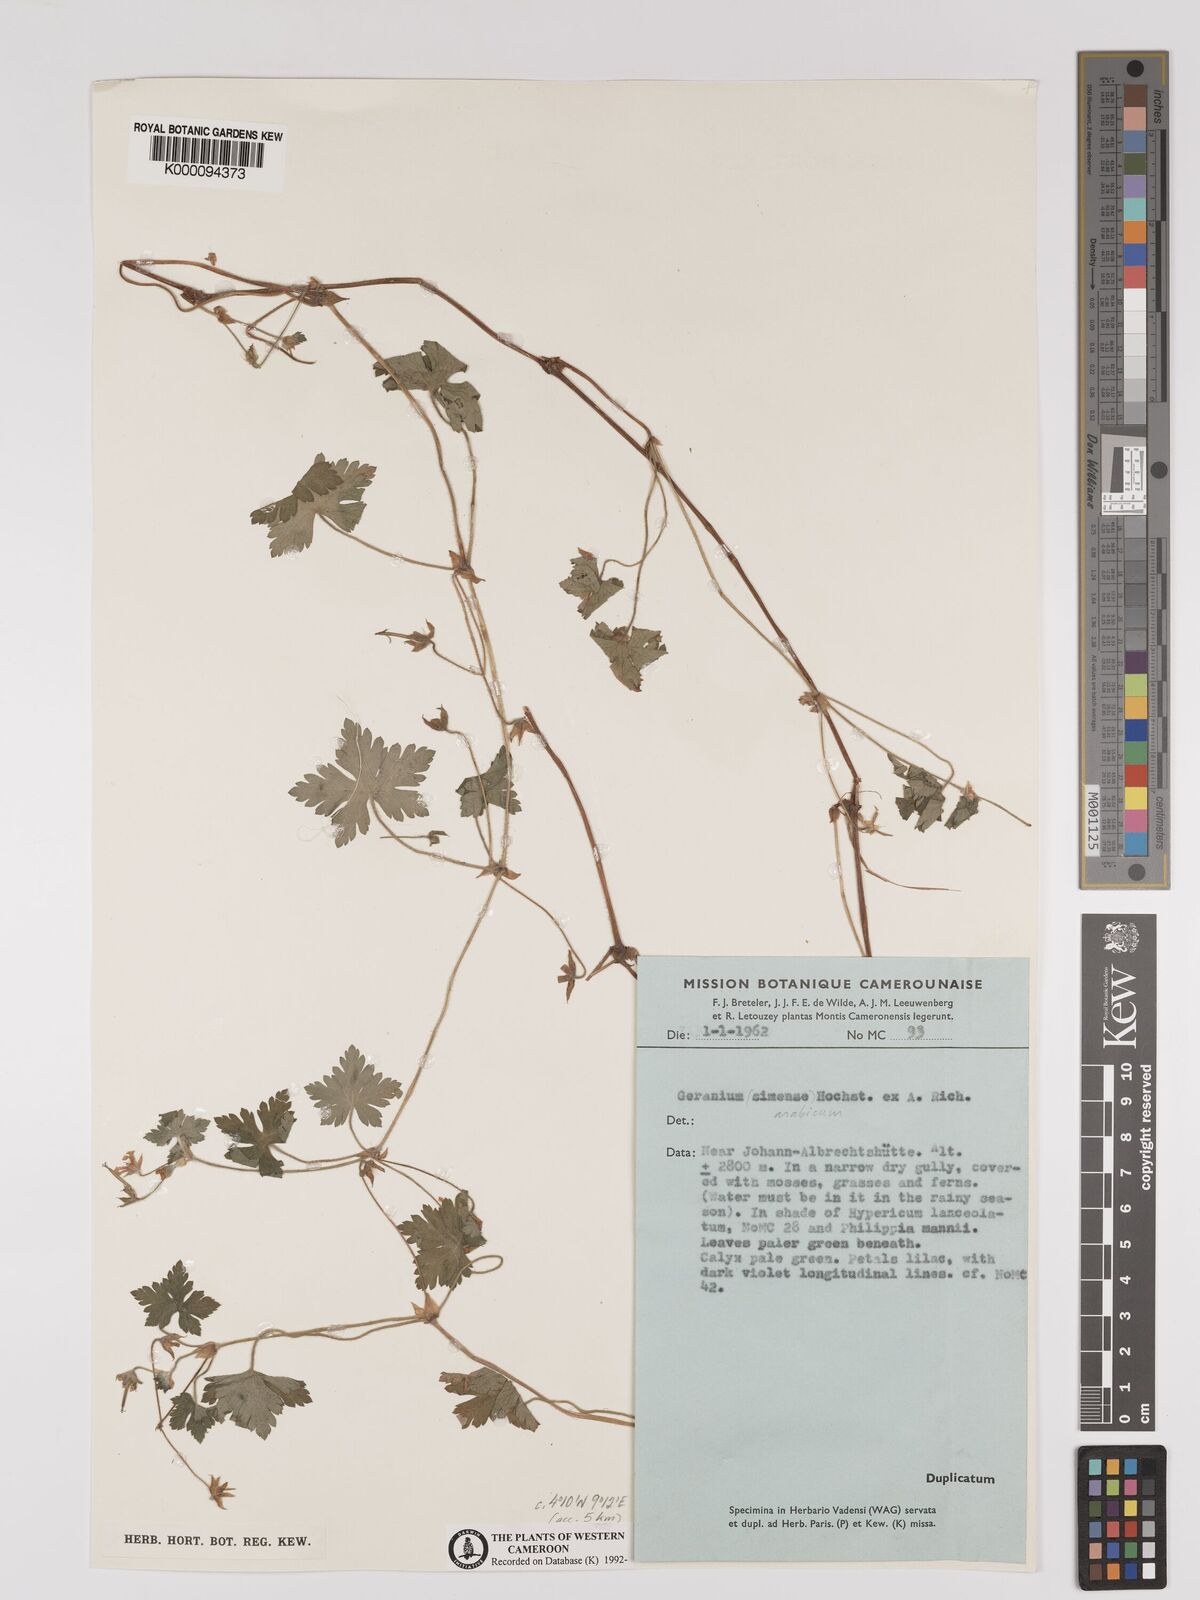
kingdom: Plantae
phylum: Tracheophyta
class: Magnoliopsida
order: Geraniales
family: Geraniaceae
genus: Geranium
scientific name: Geranium arabicum
